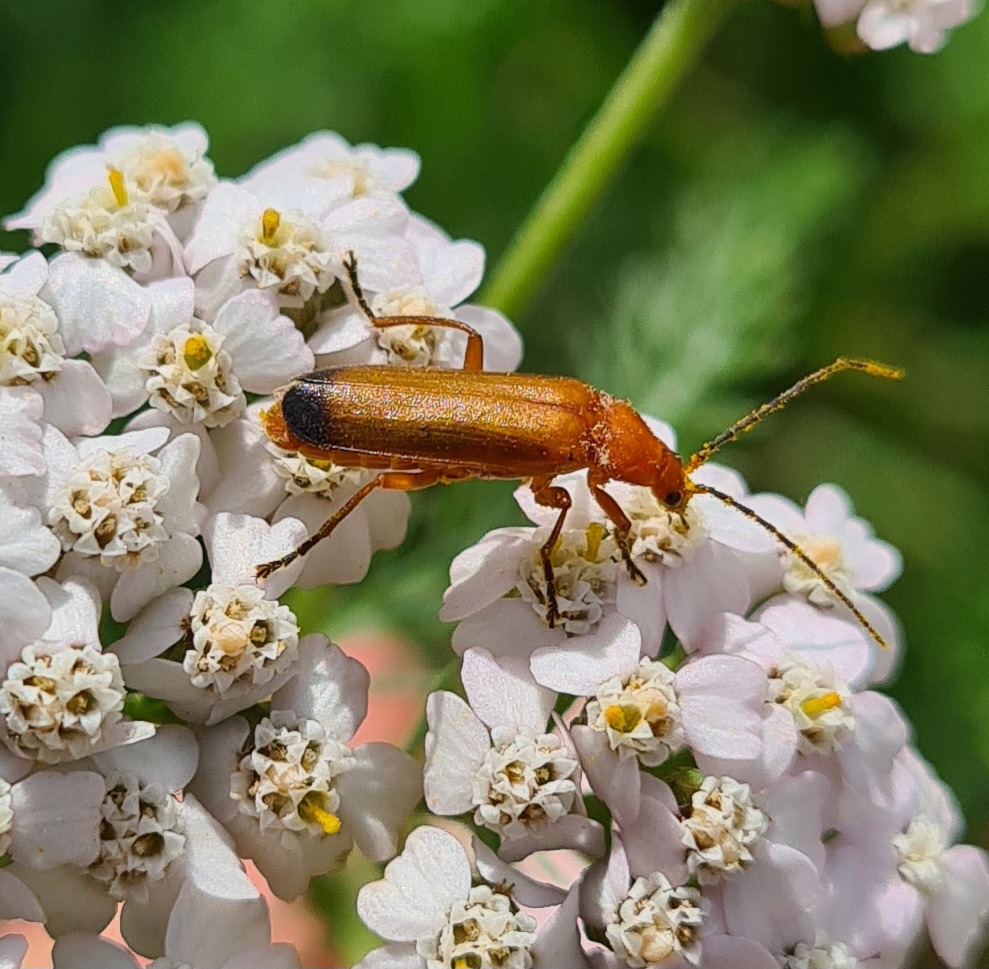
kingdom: Animalia
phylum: Arthropoda
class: Insecta
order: Coleoptera
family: Cantharidae
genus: Rhagonycha
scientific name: Rhagonycha fulva
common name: Præstebille
